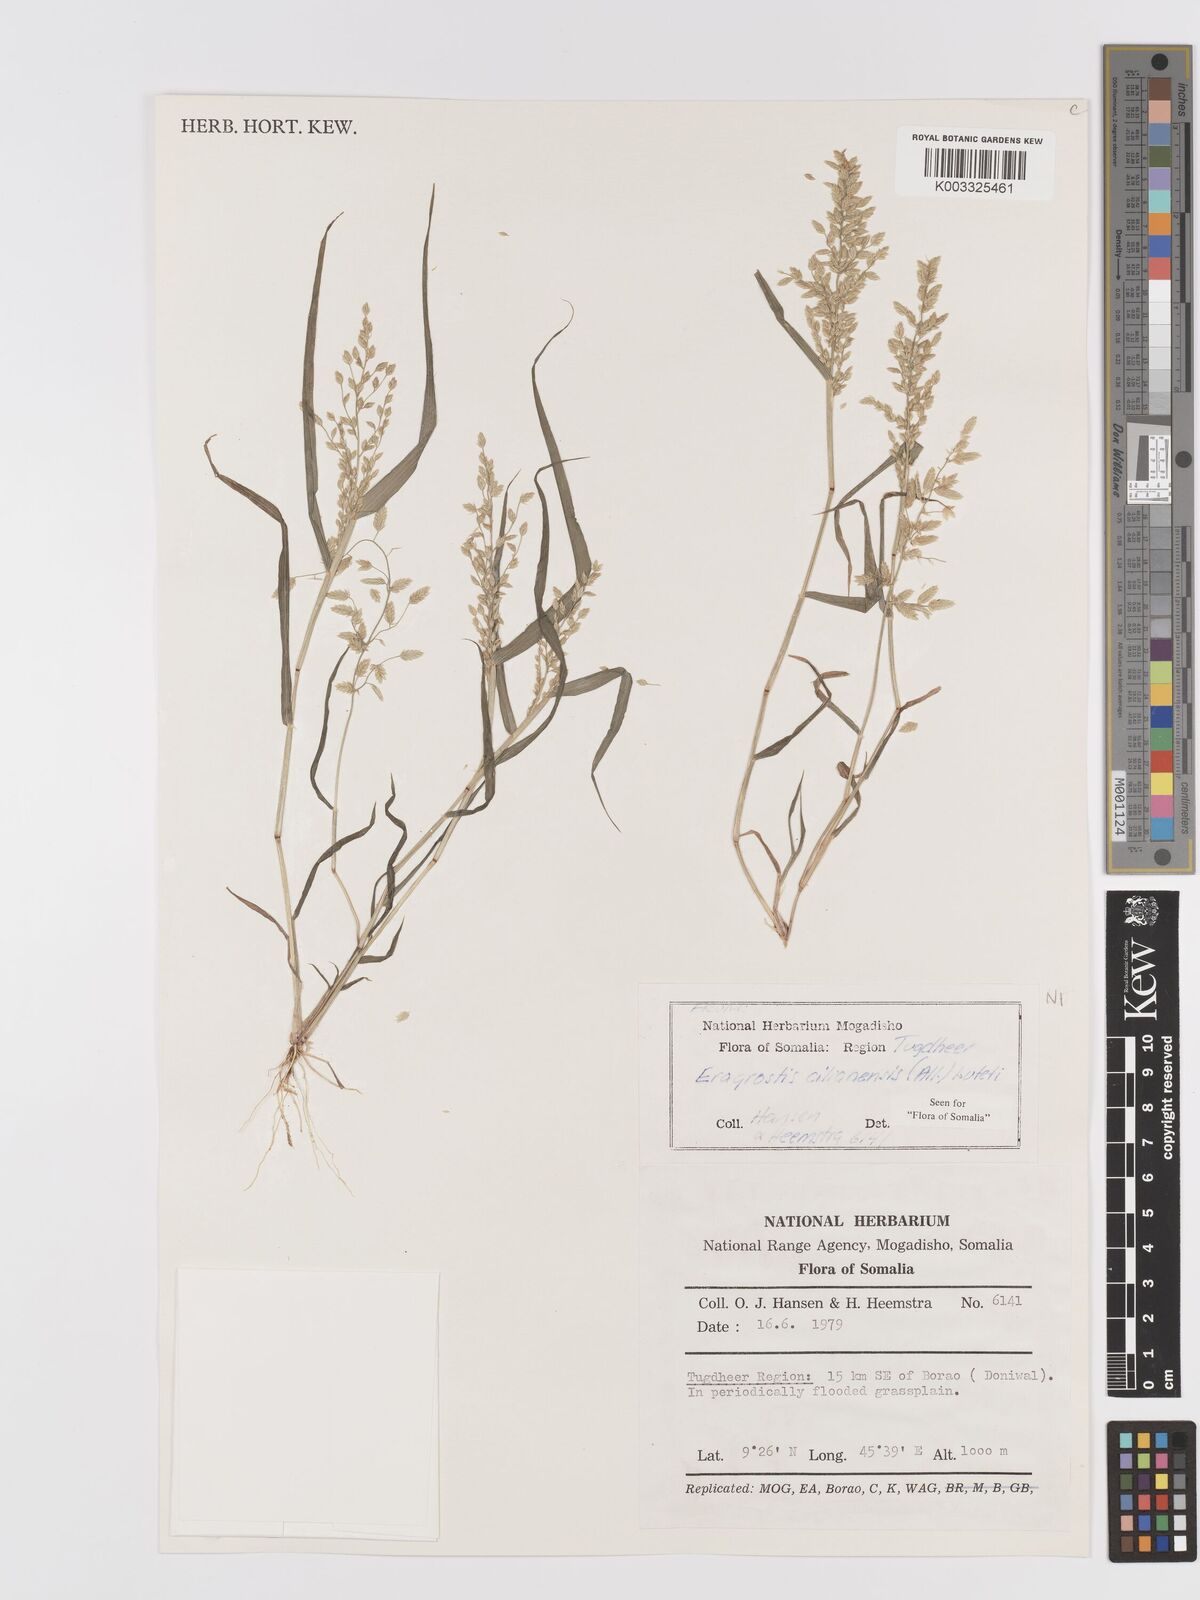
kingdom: Plantae
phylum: Tracheophyta
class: Liliopsida
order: Poales
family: Poaceae
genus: Eragrostis
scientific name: Eragrostis cilianensis
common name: Stinkgrass
